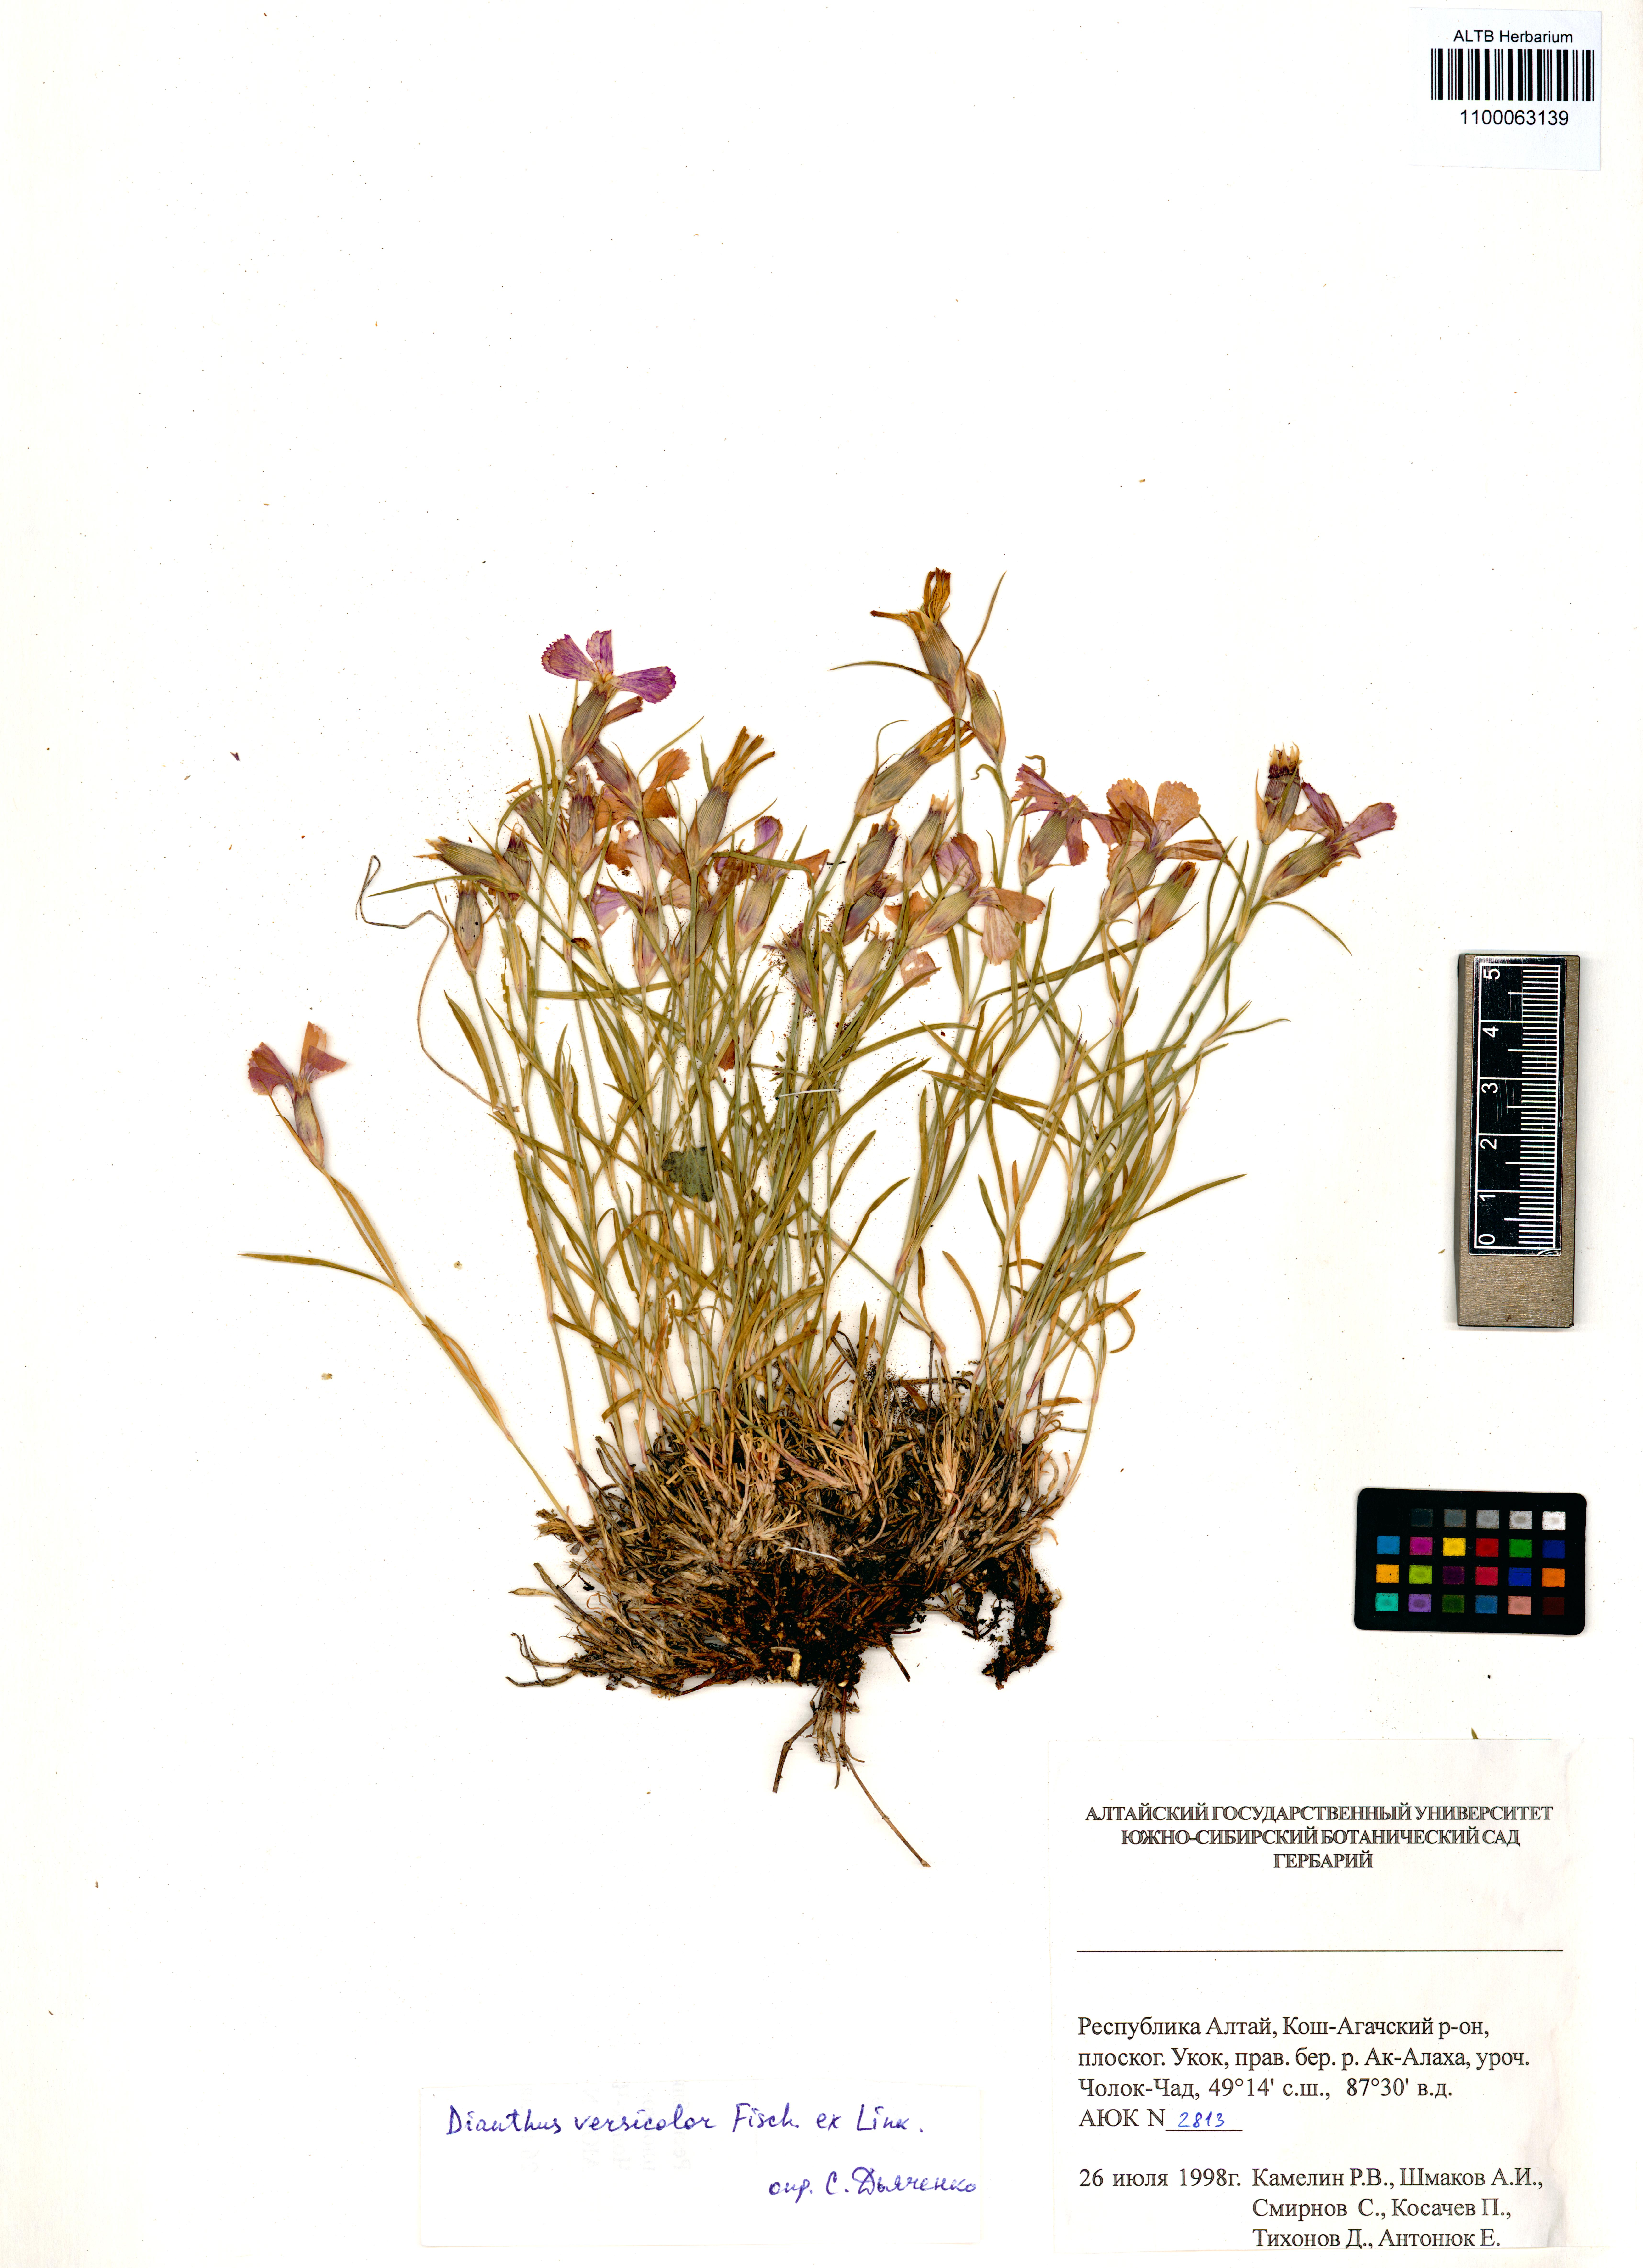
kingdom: Plantae
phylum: Tracheophyta
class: Magnoliopsida
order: Caryophyllales
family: Caryophyllaceae
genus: Dianthus
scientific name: Dianthus chinensis
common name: Rainbow pink
